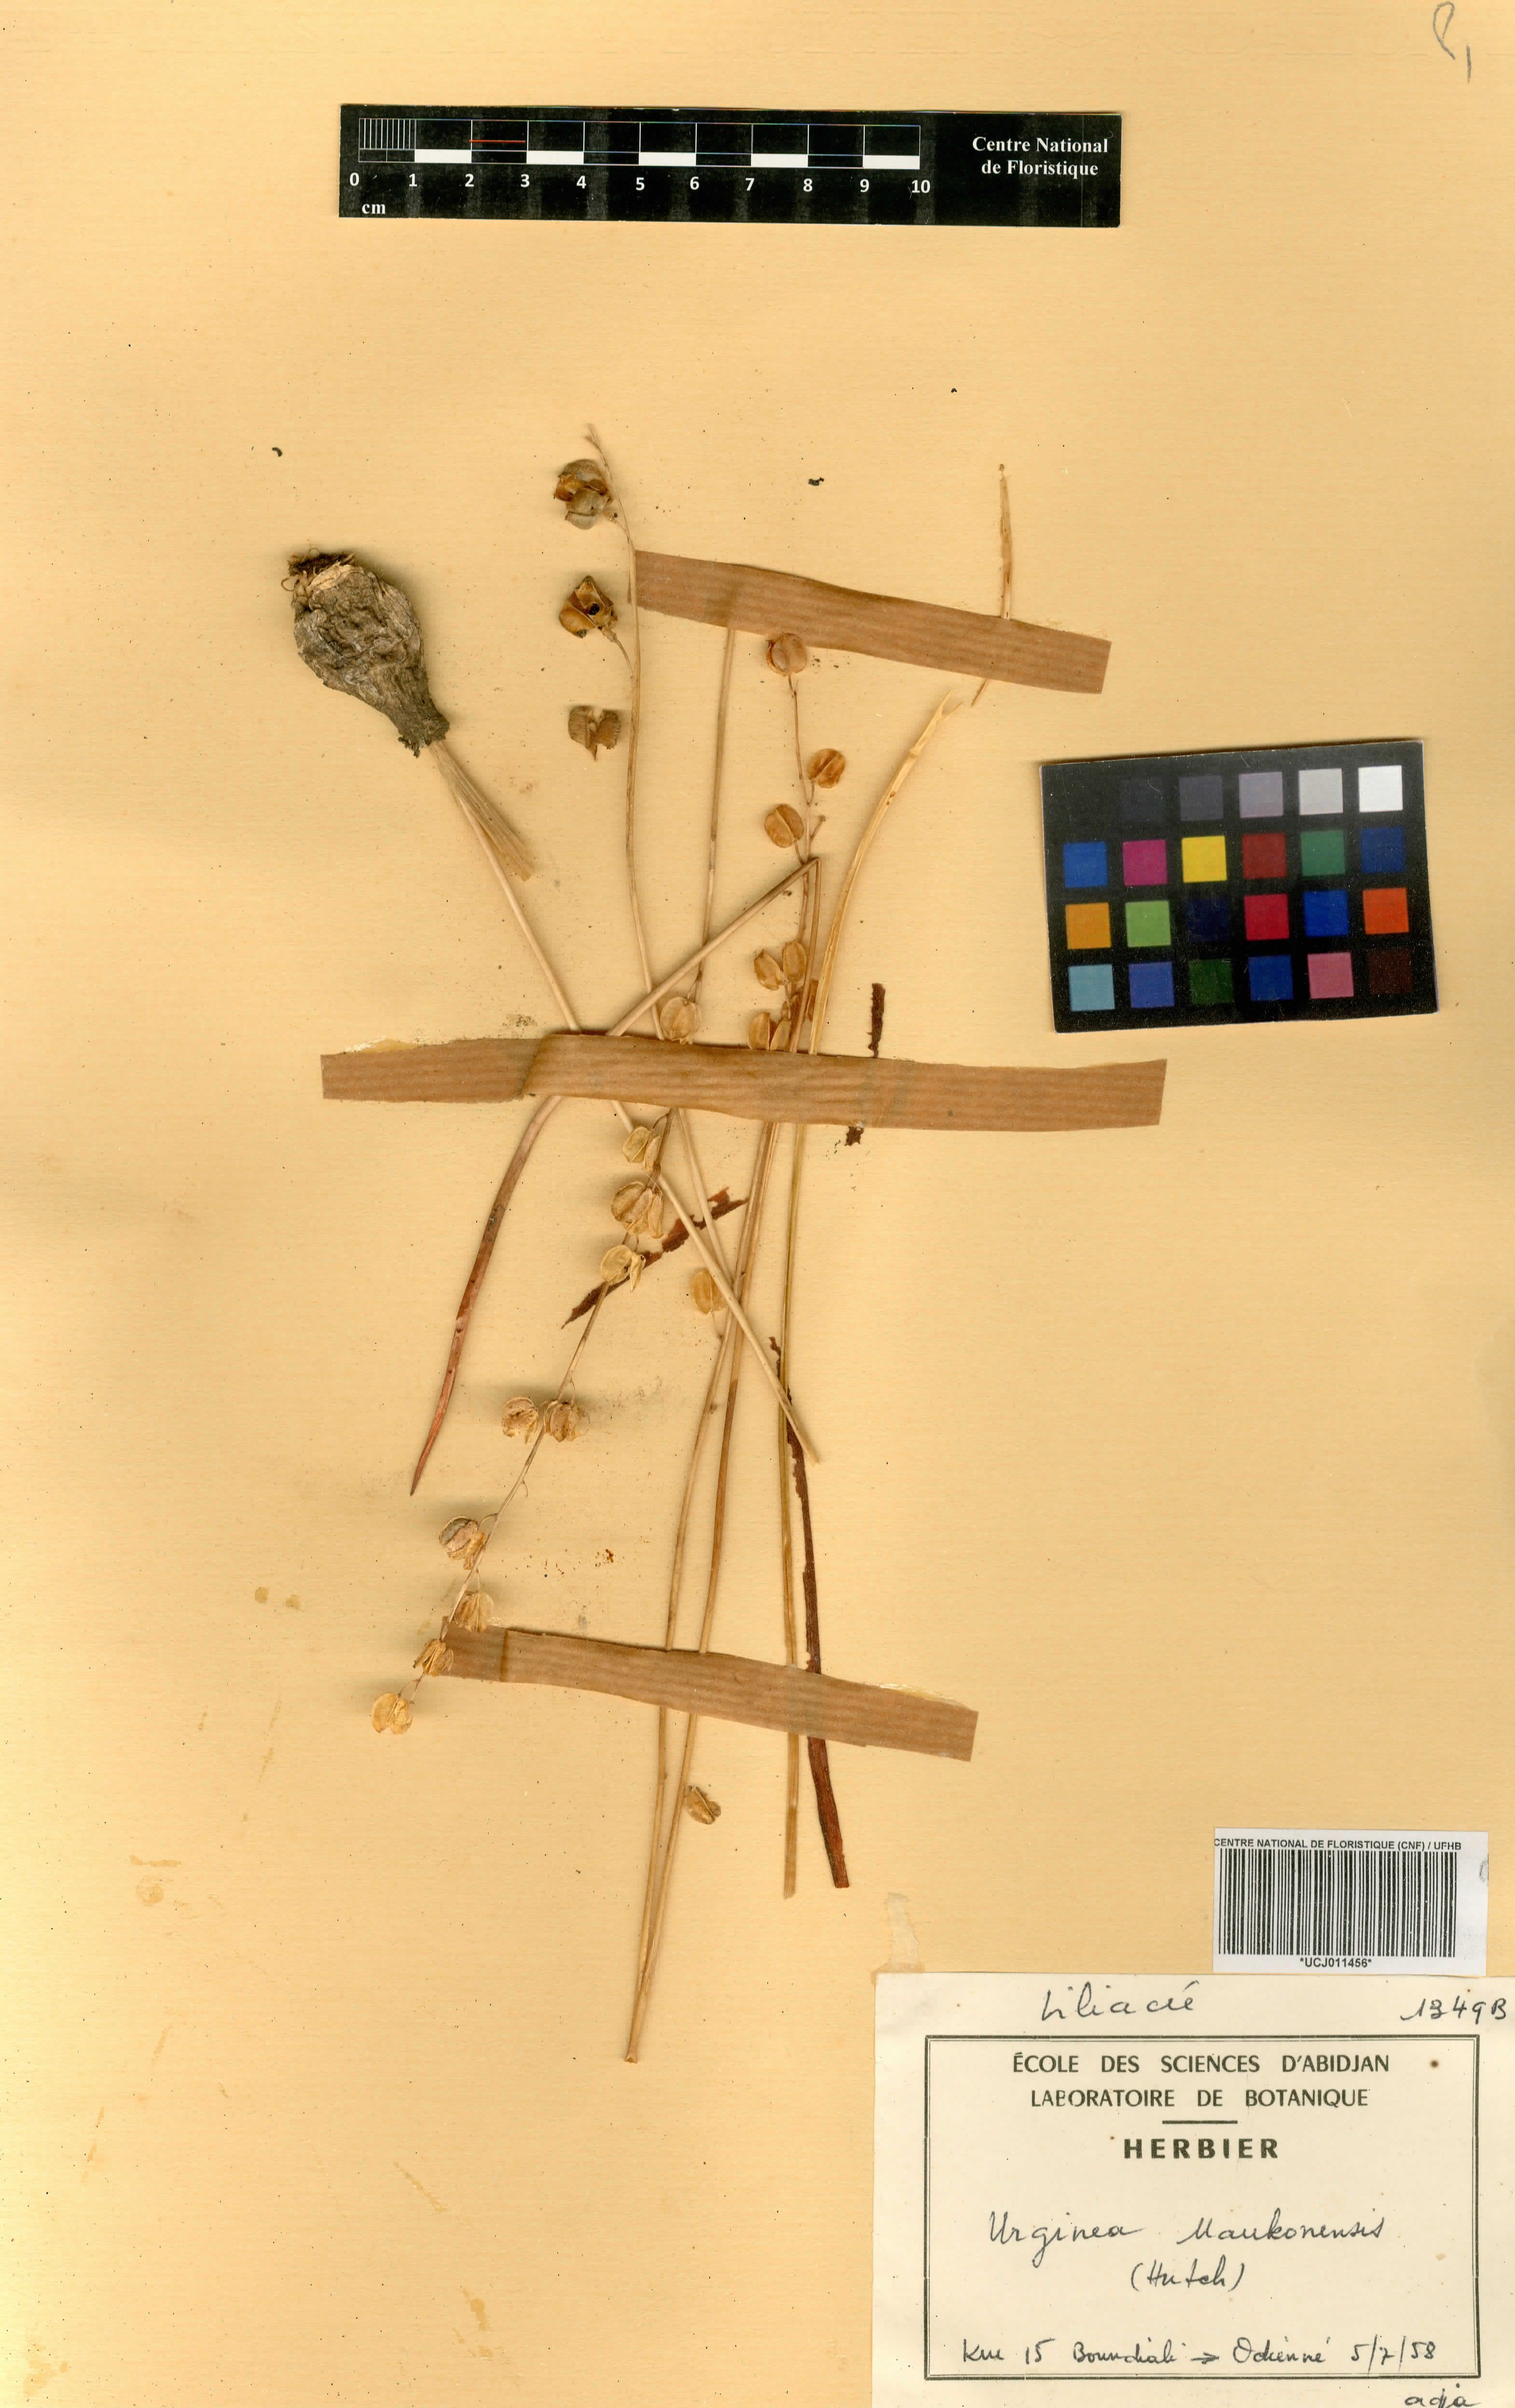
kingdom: Plantae
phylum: Tracheophyta
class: Liliopsida
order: Asparagales
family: Asparagaceae
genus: Albuca
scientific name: Albuca sudanica
